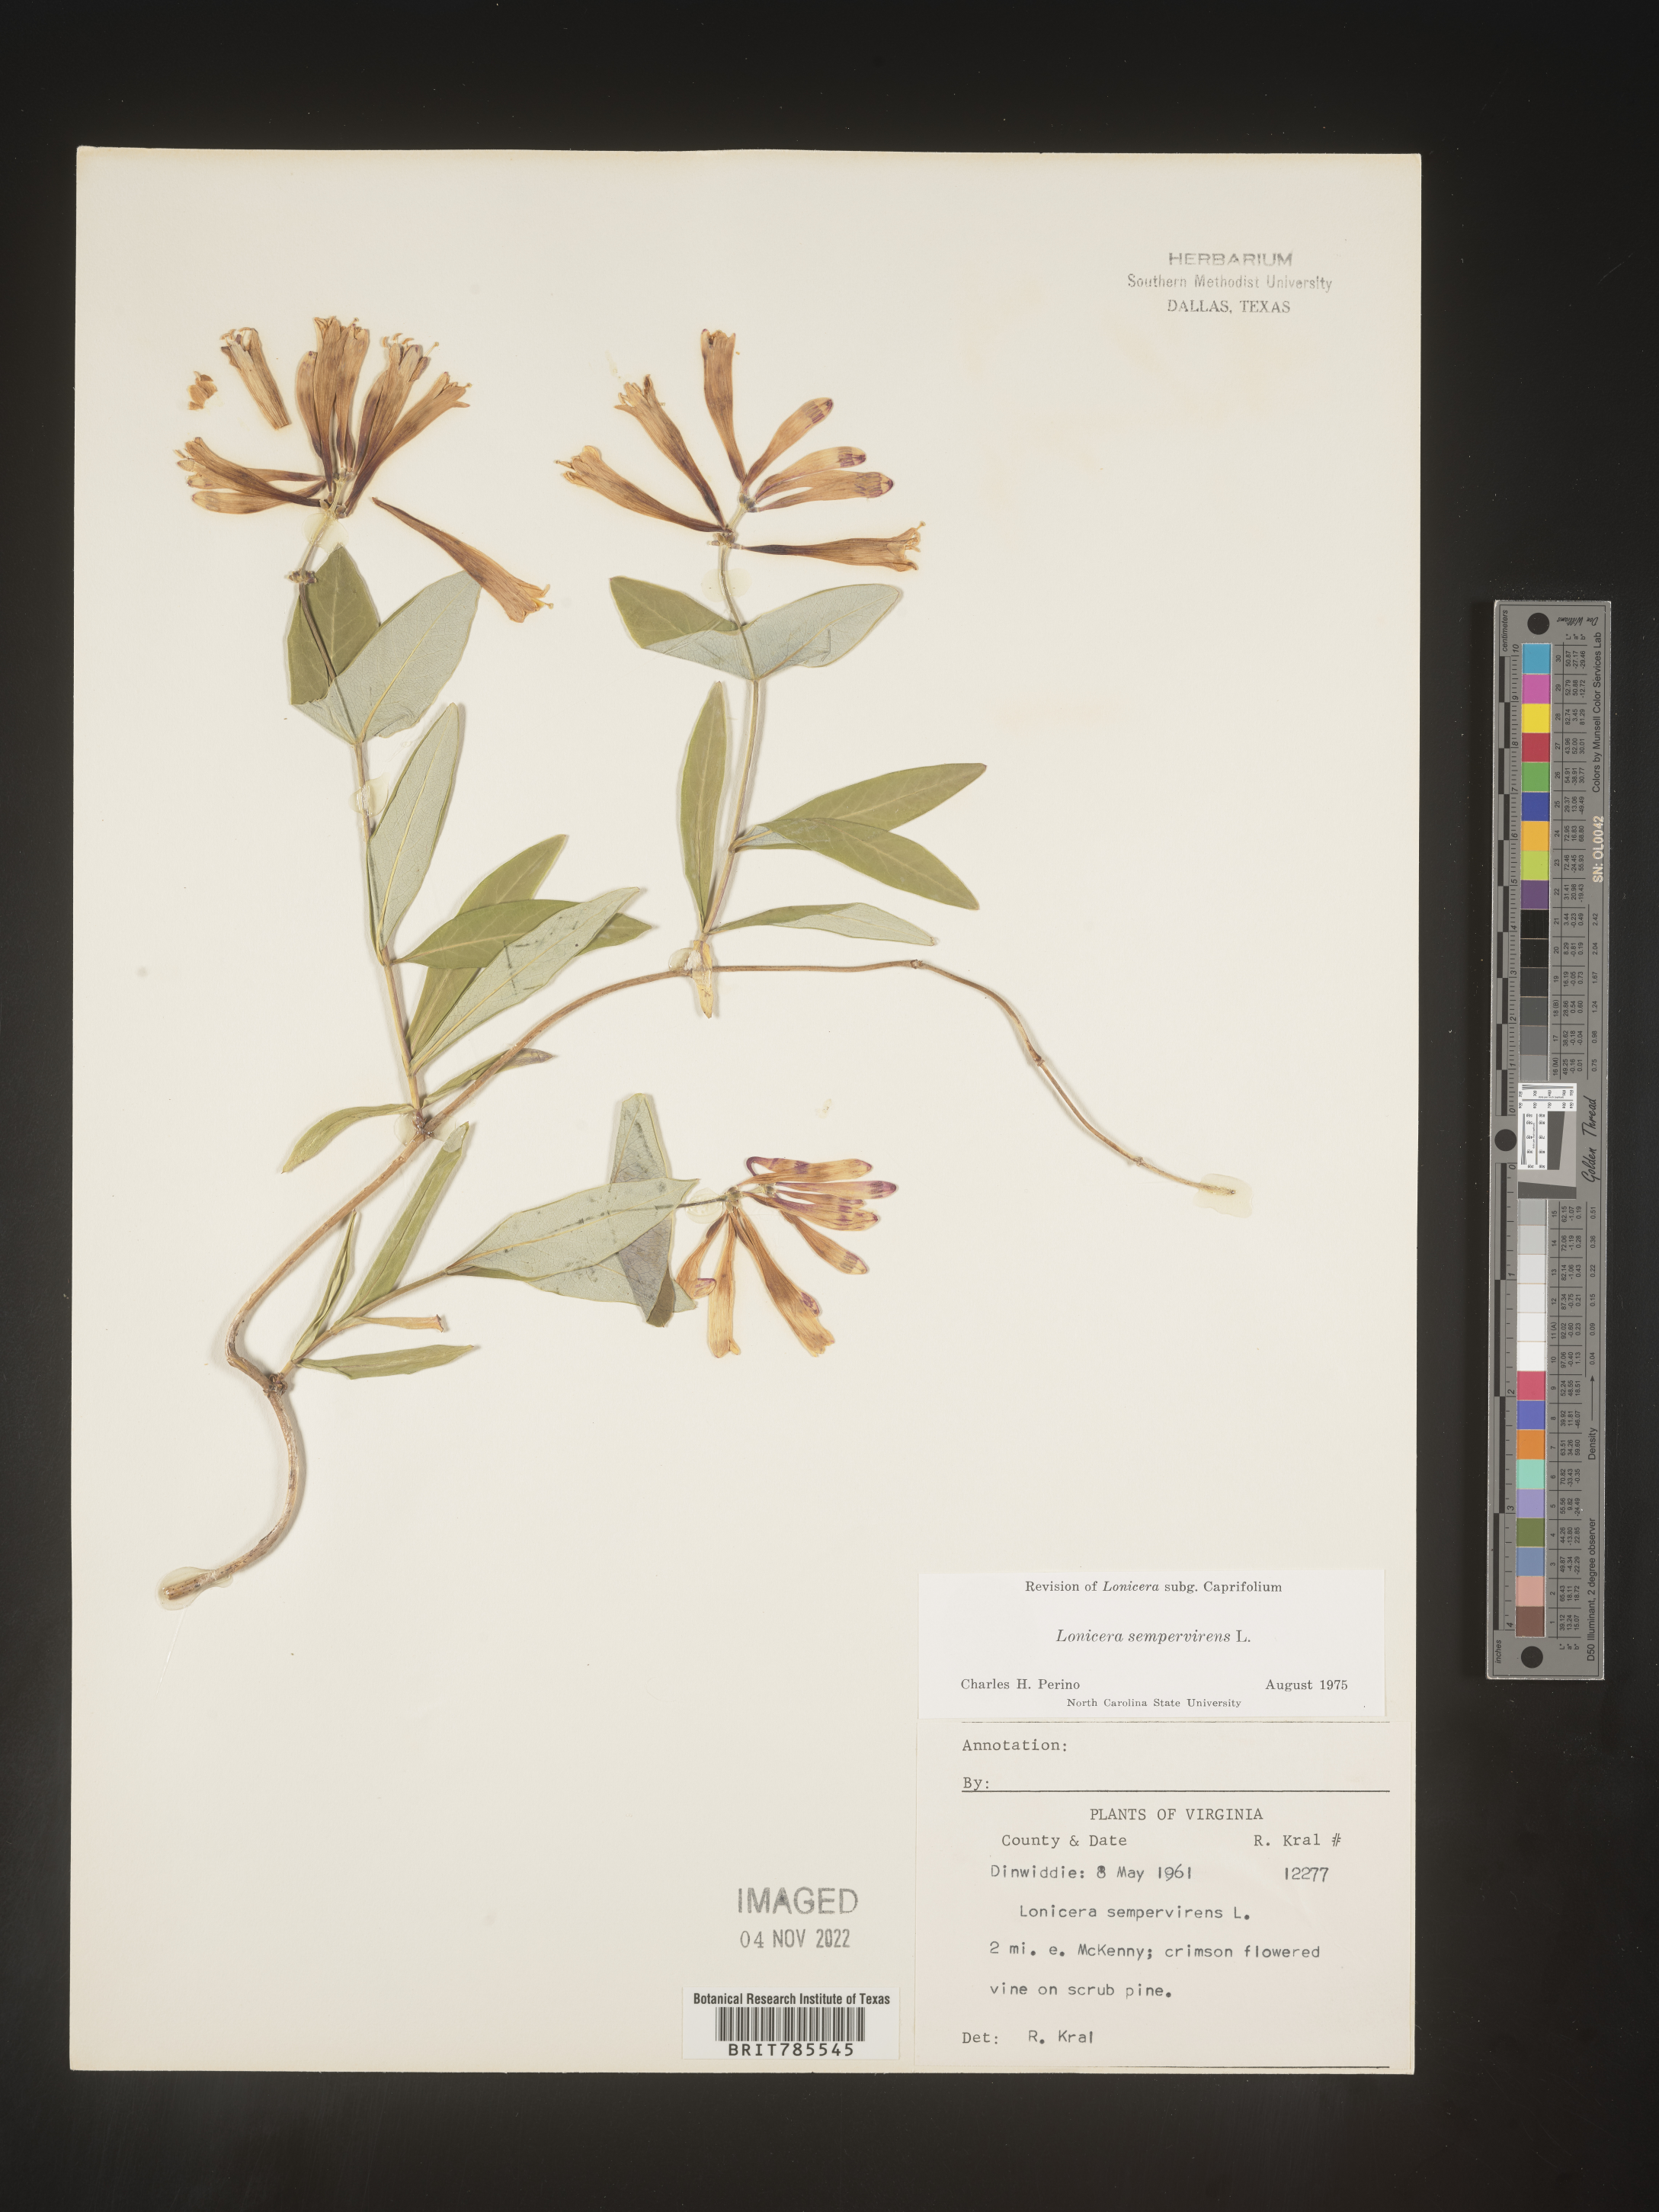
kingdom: Plantae
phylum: Tracheophyta
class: Magnoliopsida
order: Dipsacales
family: Caprifoliaceae
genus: Lonicera
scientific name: Lonicera sempervirens
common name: Coral honeysuckle
